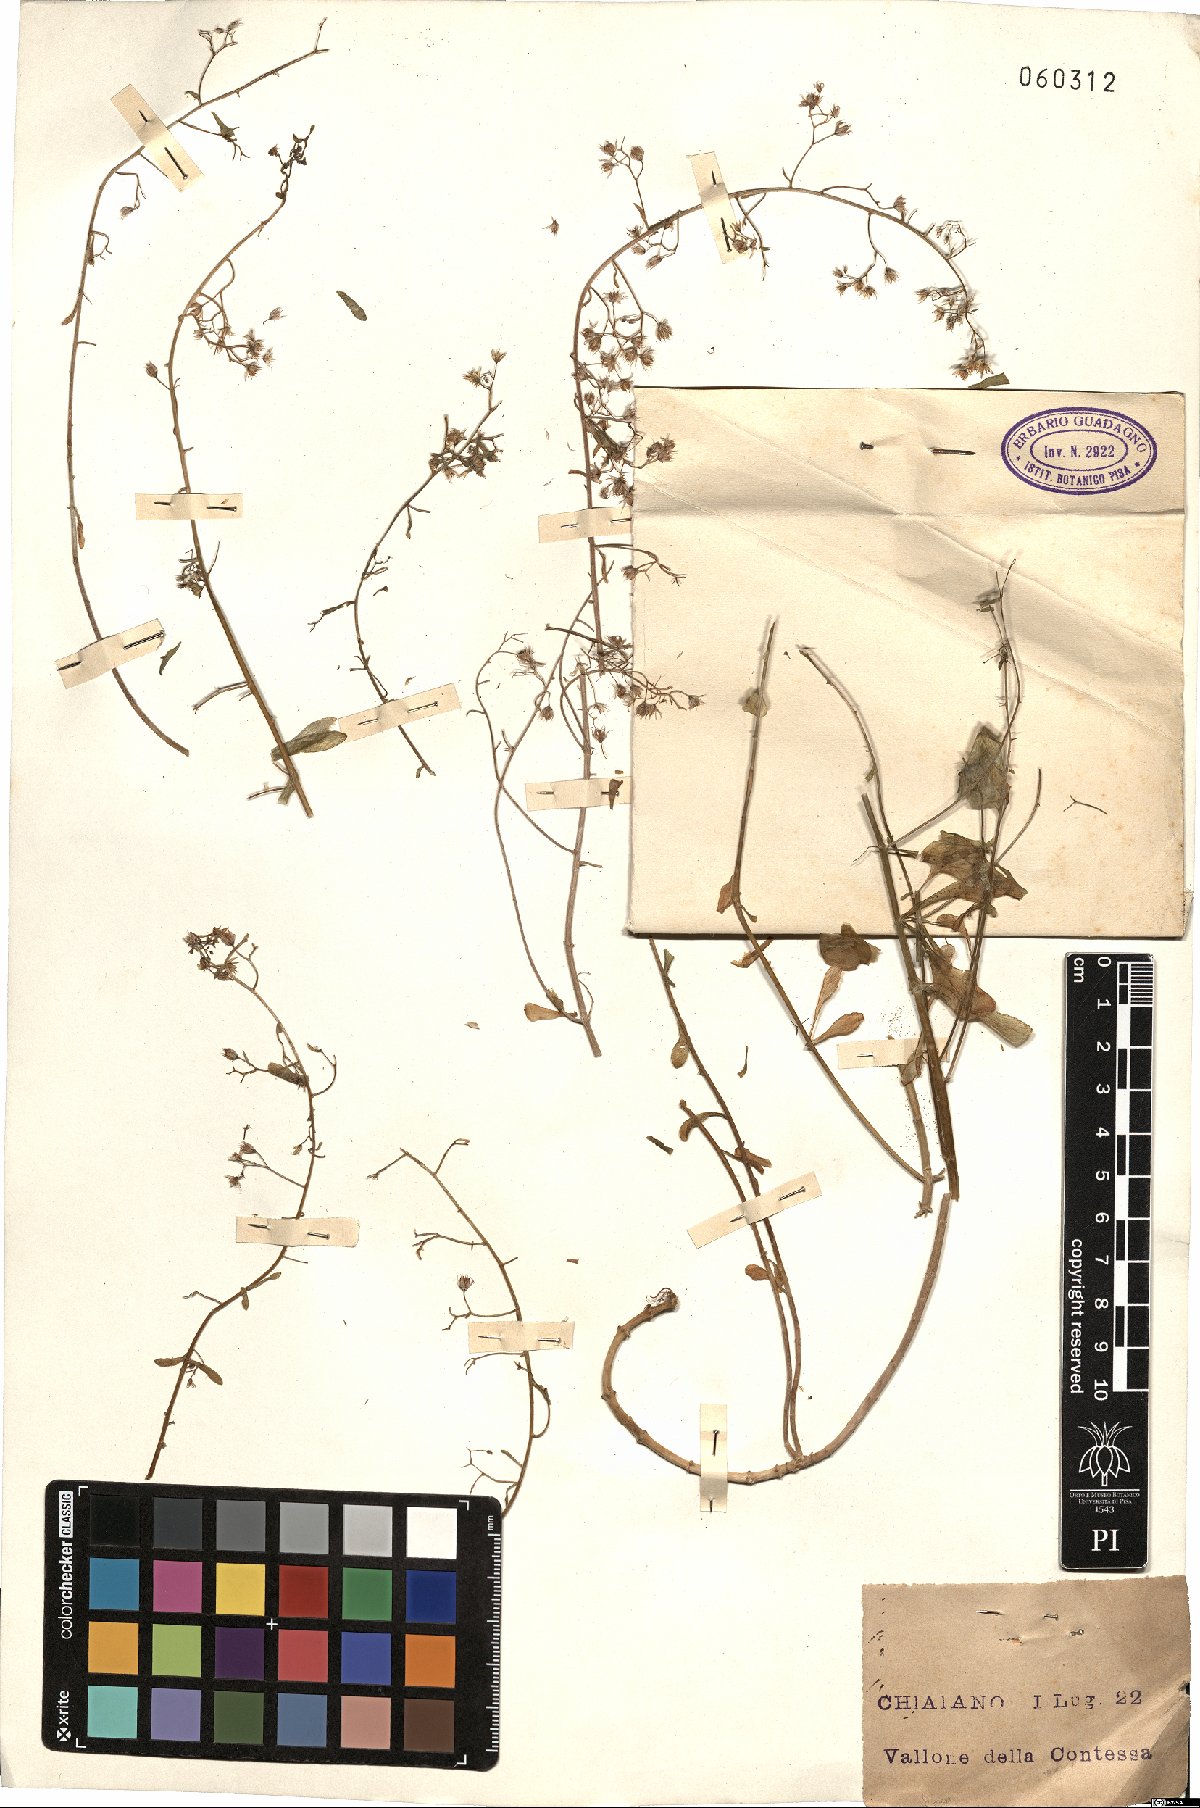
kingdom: Plantae
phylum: Tracheophyta
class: Magnoliopsida
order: Saxifragales
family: Crassulaceae
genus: Sedum
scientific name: Sedum cepaea
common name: Pink stonecrop
